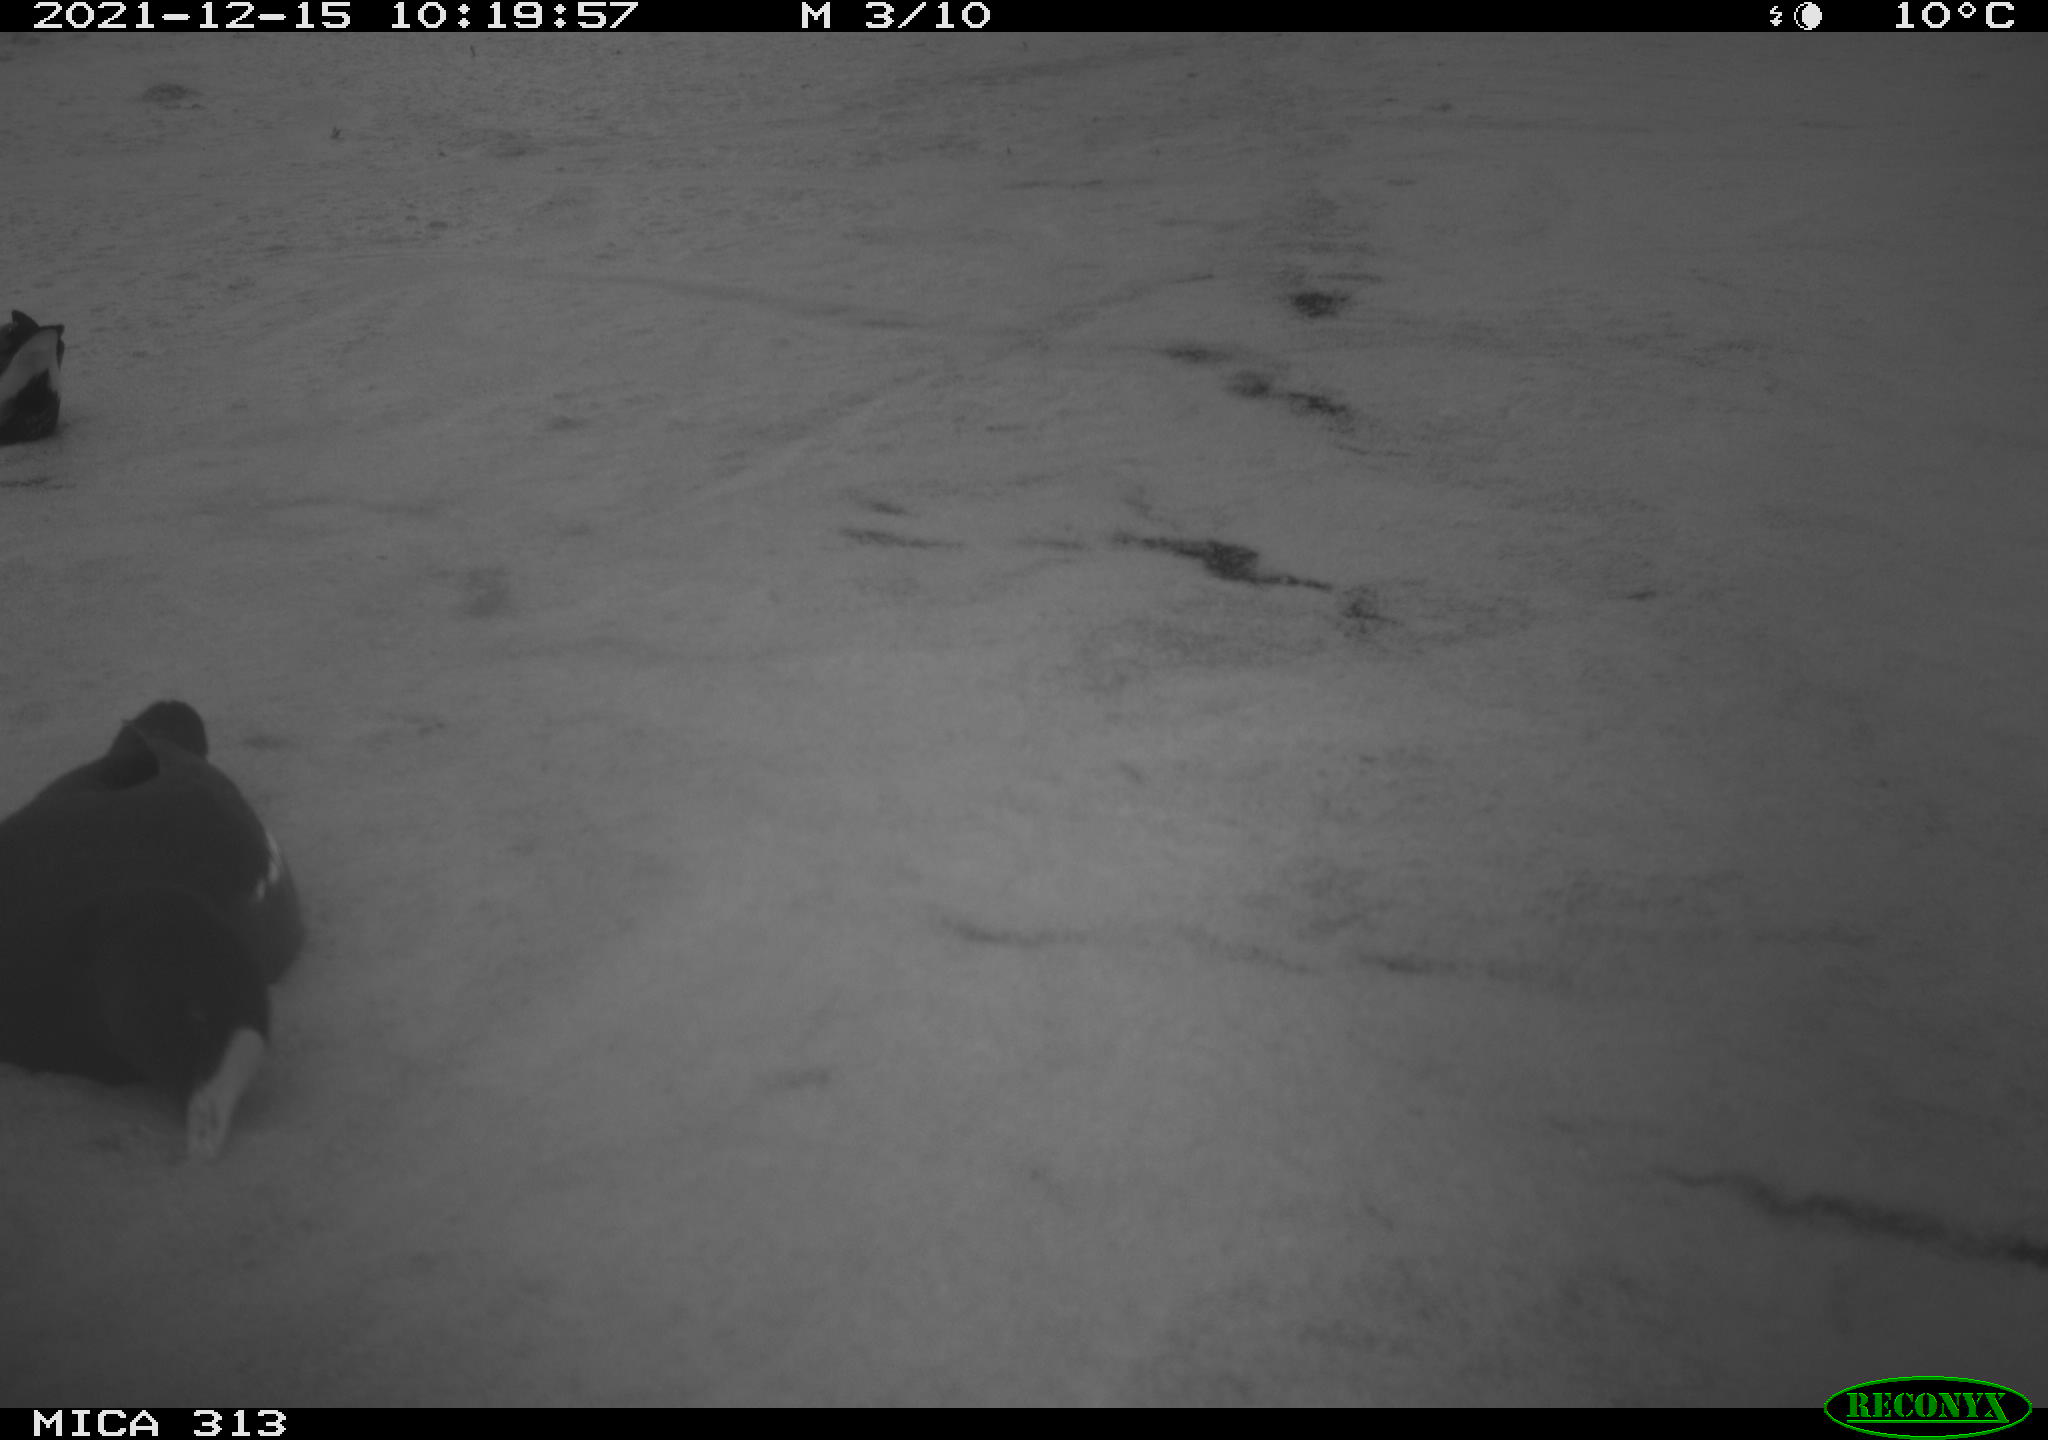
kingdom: Animalia
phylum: Chordata
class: Aves
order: Gruiformes
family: Rallidae
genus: Gallinula
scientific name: Gallinula chloropus
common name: Common moorhen
